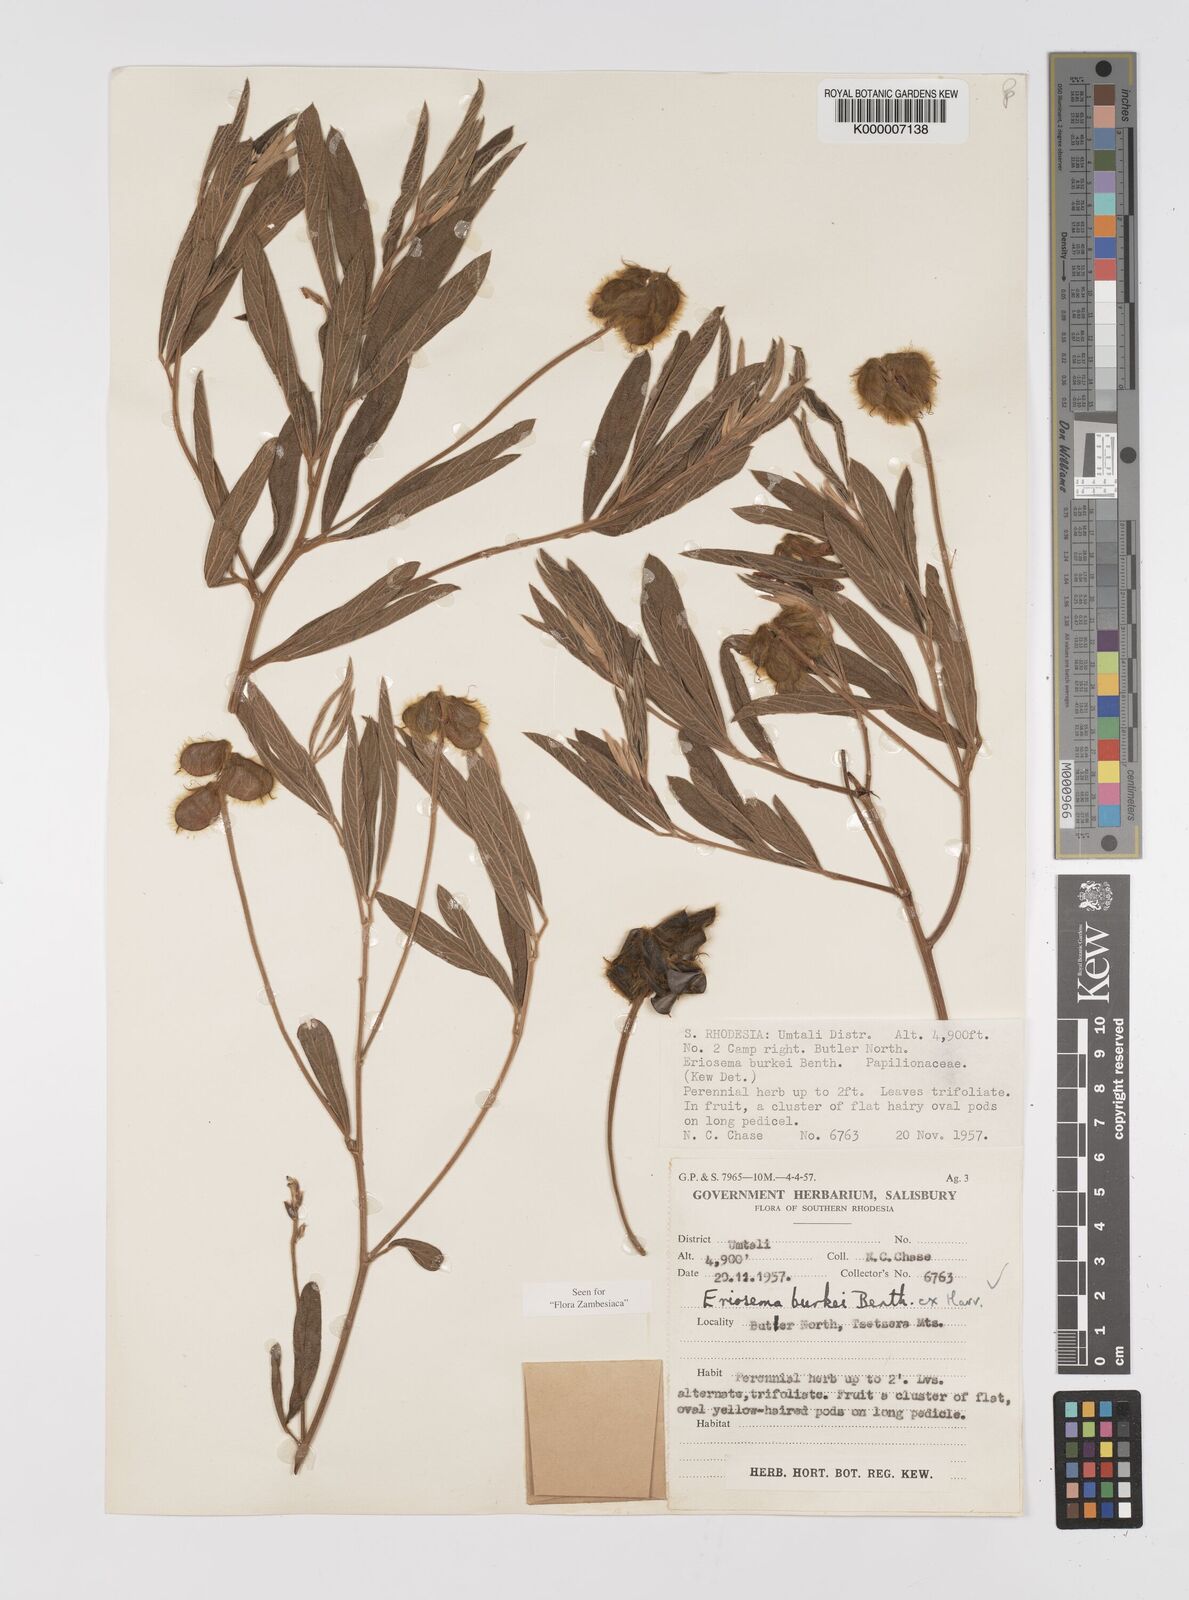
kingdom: Plantae
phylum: Tracheophyta
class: Magnoliopsida
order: Fabales
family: Fabaceae
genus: Eriosema
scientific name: Eriosema burkei
